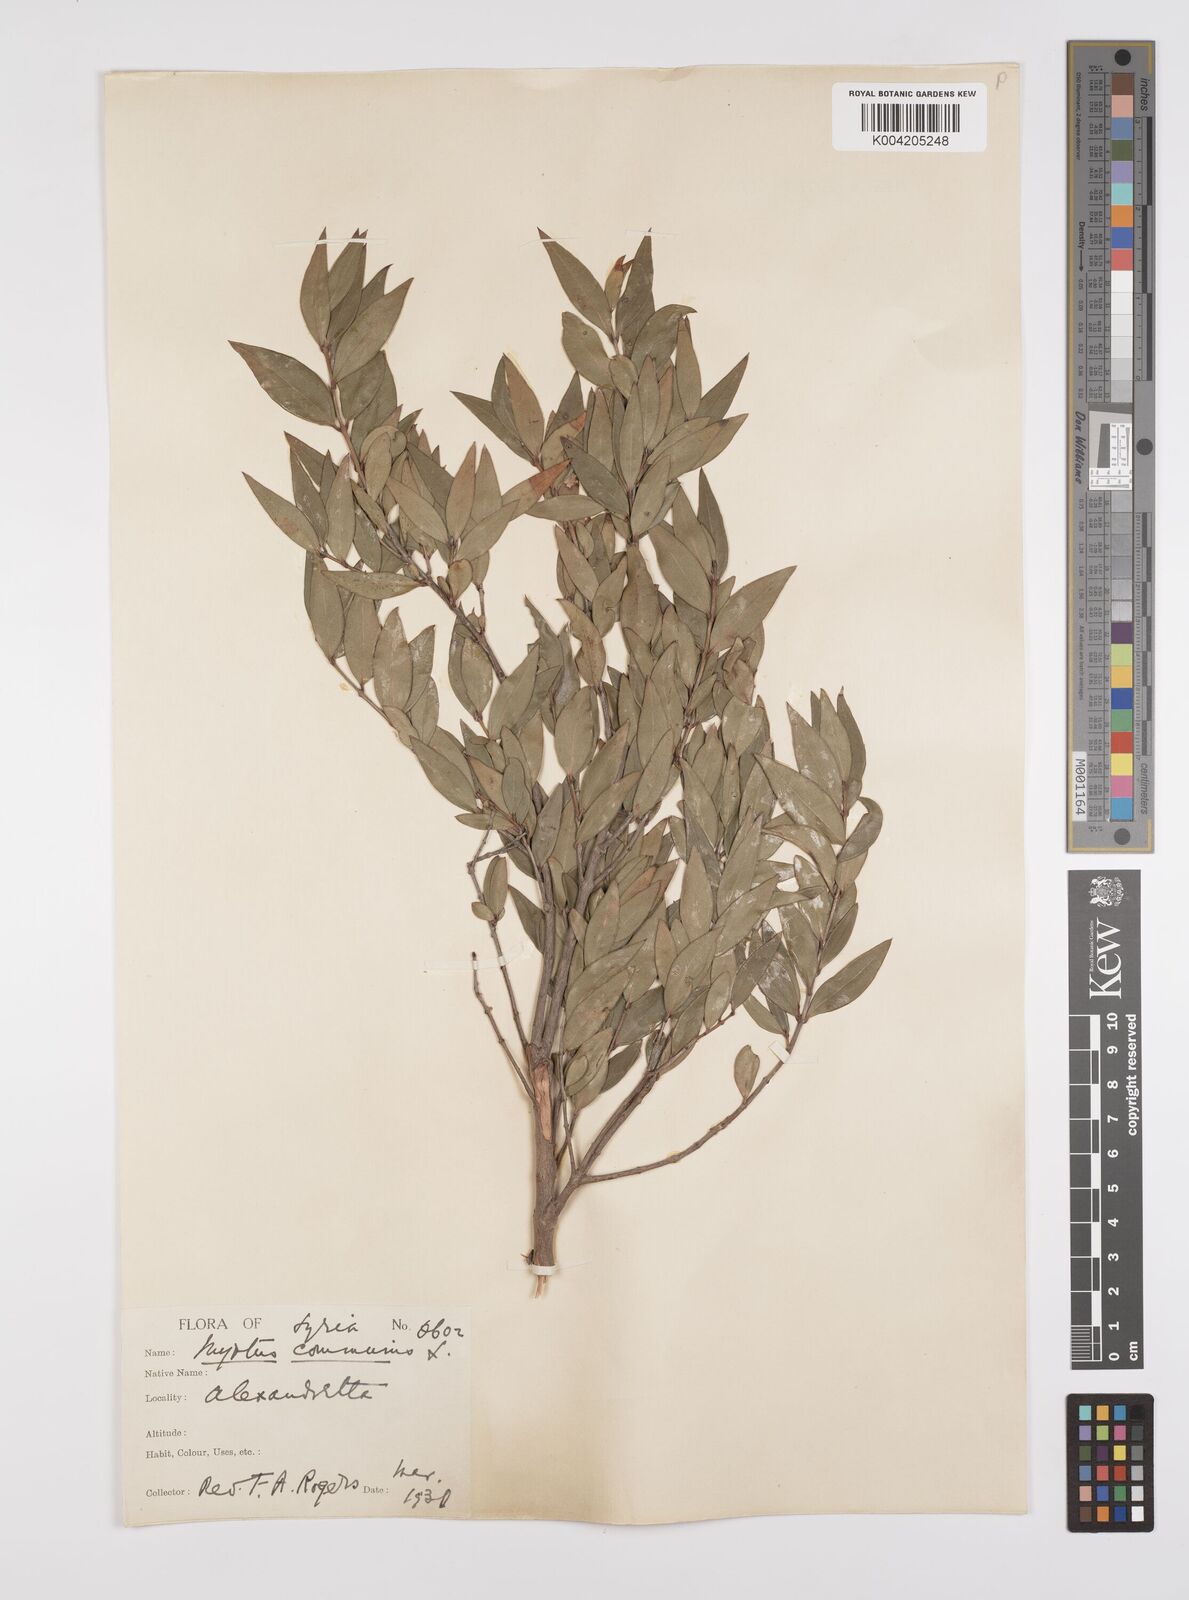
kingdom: Plantae
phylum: Tracheophyta
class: Magnoliopsida
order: Myrtales
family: Myrtaceae
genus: Myrtus
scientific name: Myrtus communis
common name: Myrtle
